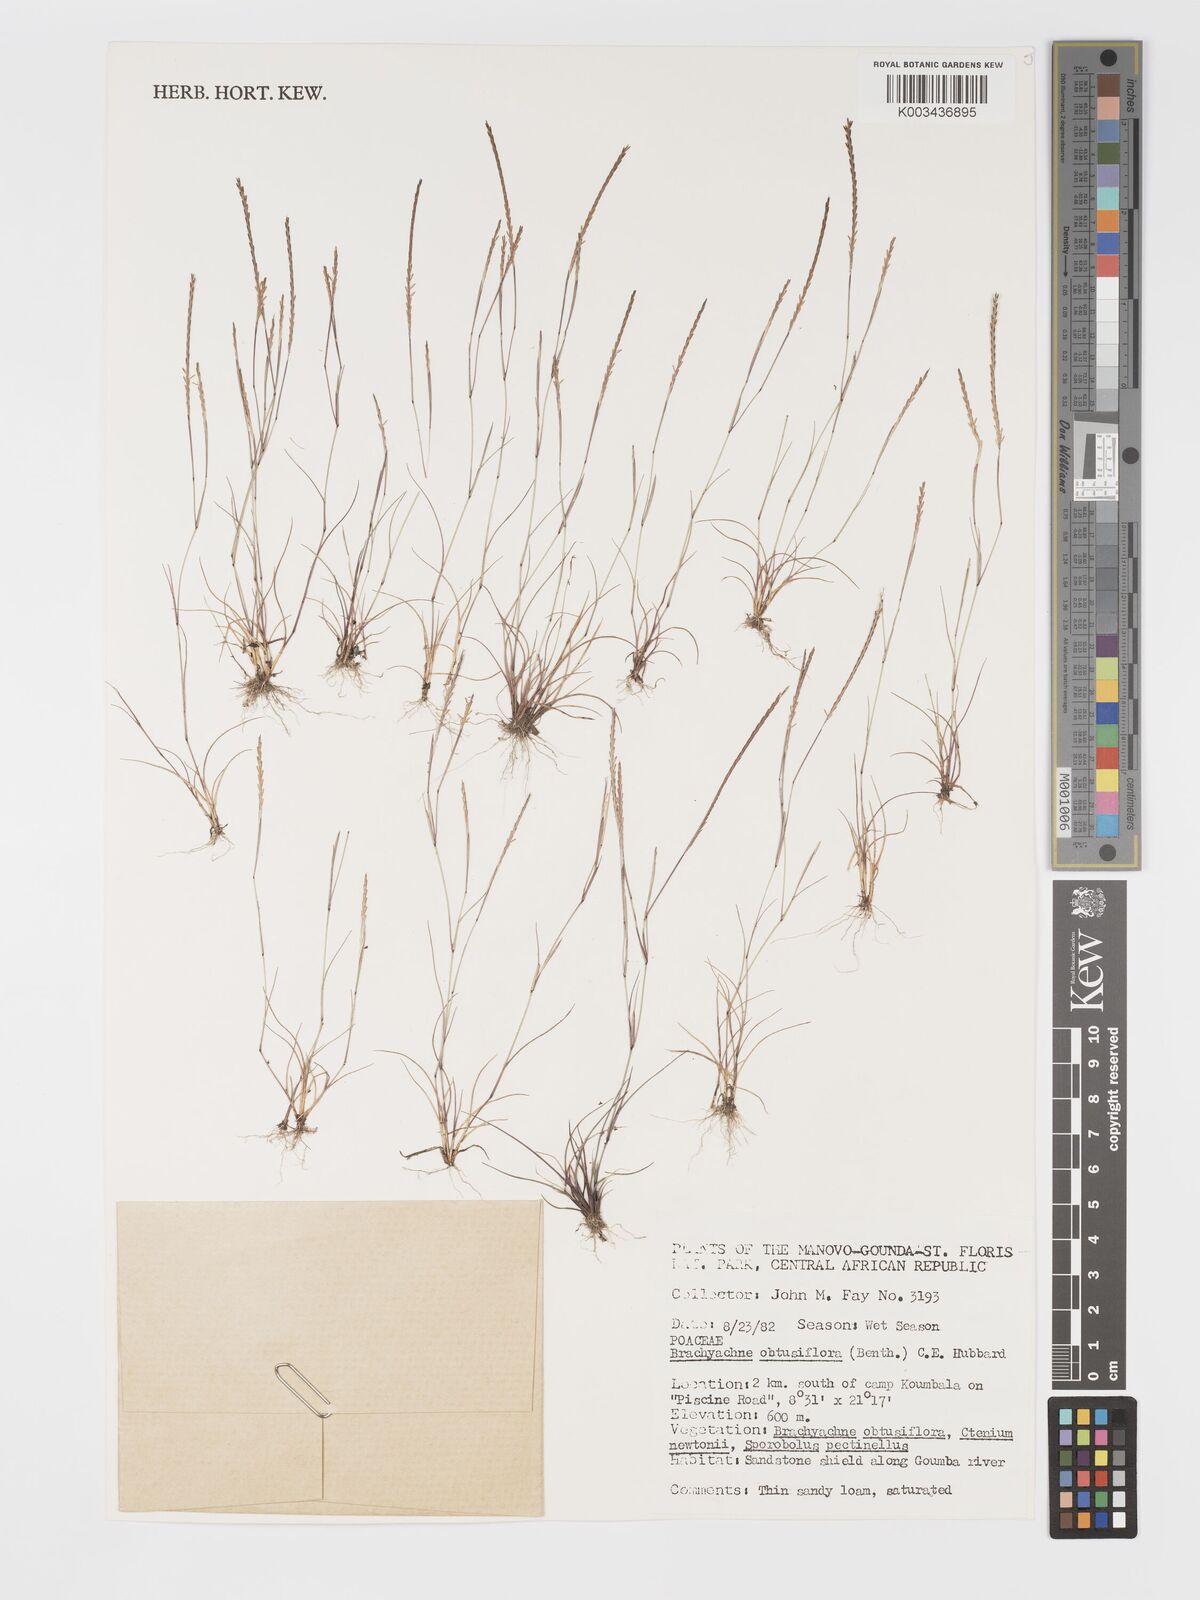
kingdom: Plantae
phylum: Tracheophyta
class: Liliopsida
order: Poales
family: Poaceae
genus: Micrachne
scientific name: Micrachne obtusiflora
